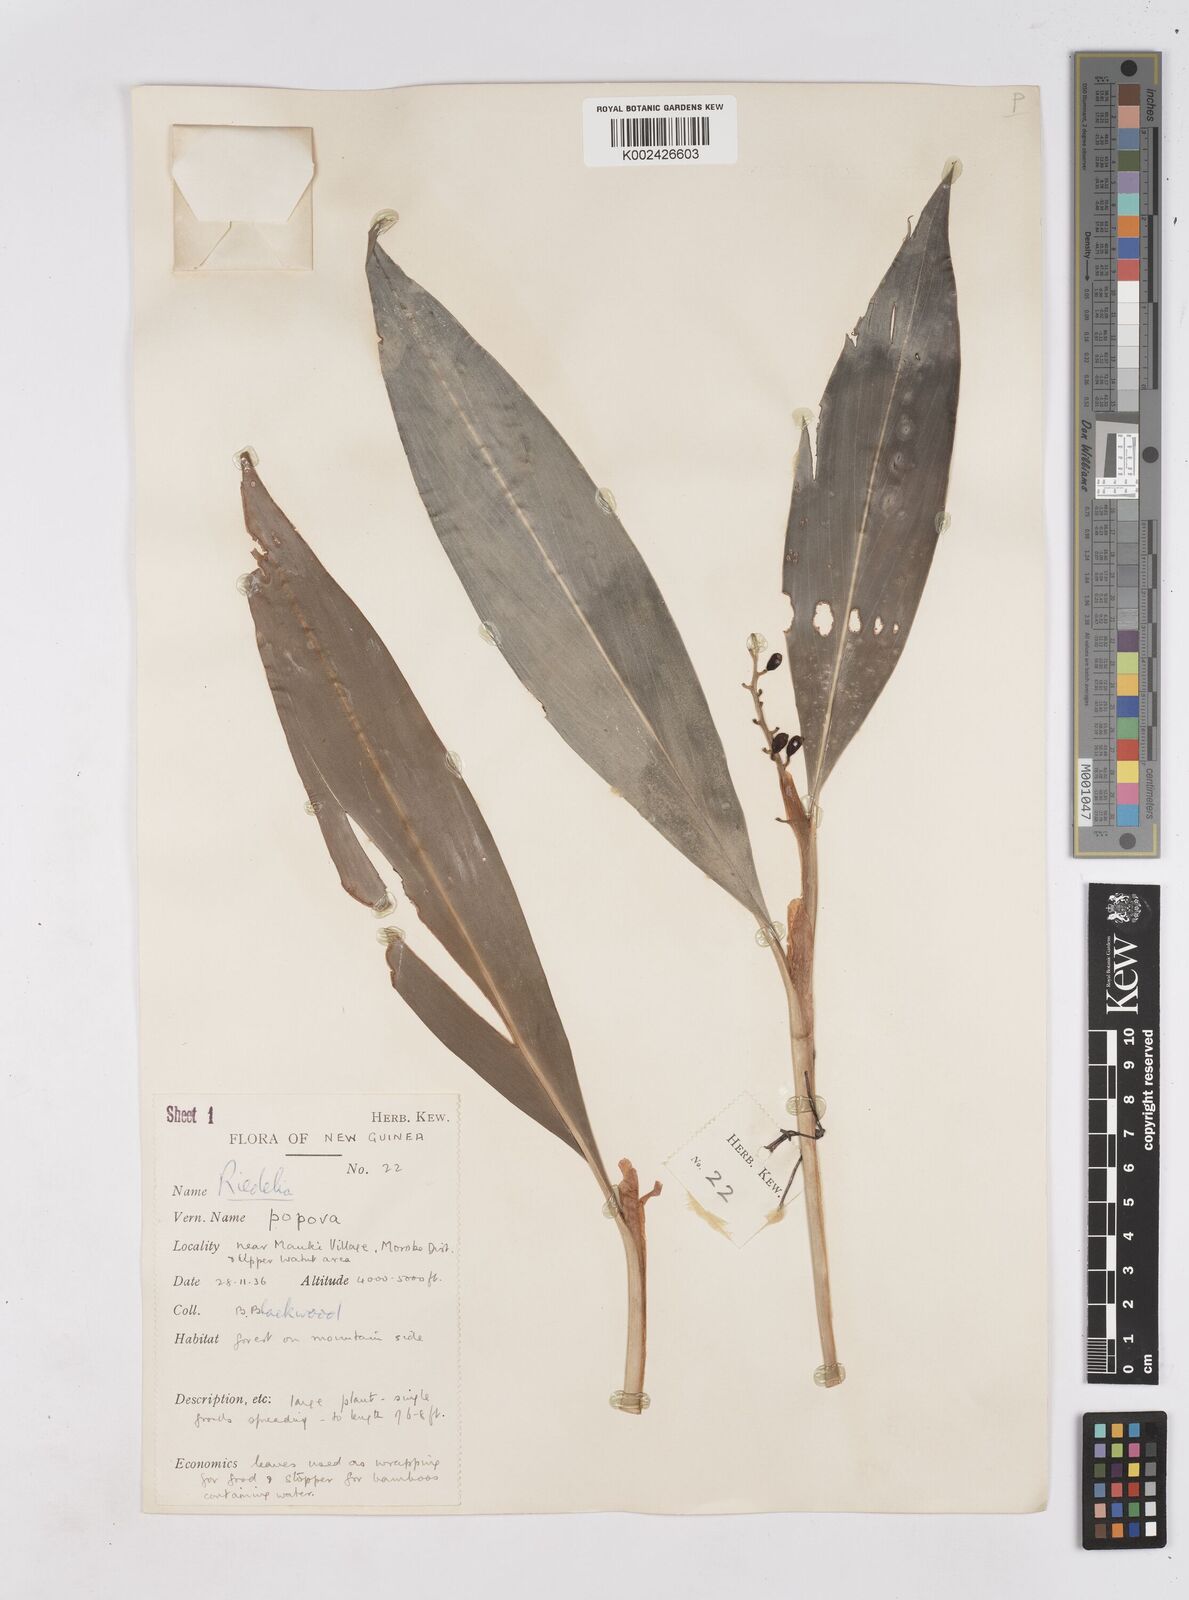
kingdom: Plantae
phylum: Tracheophyta
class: Liliopsida
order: Zingiberales
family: Zingiberaceae
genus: Riedelia
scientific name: Riedelia
